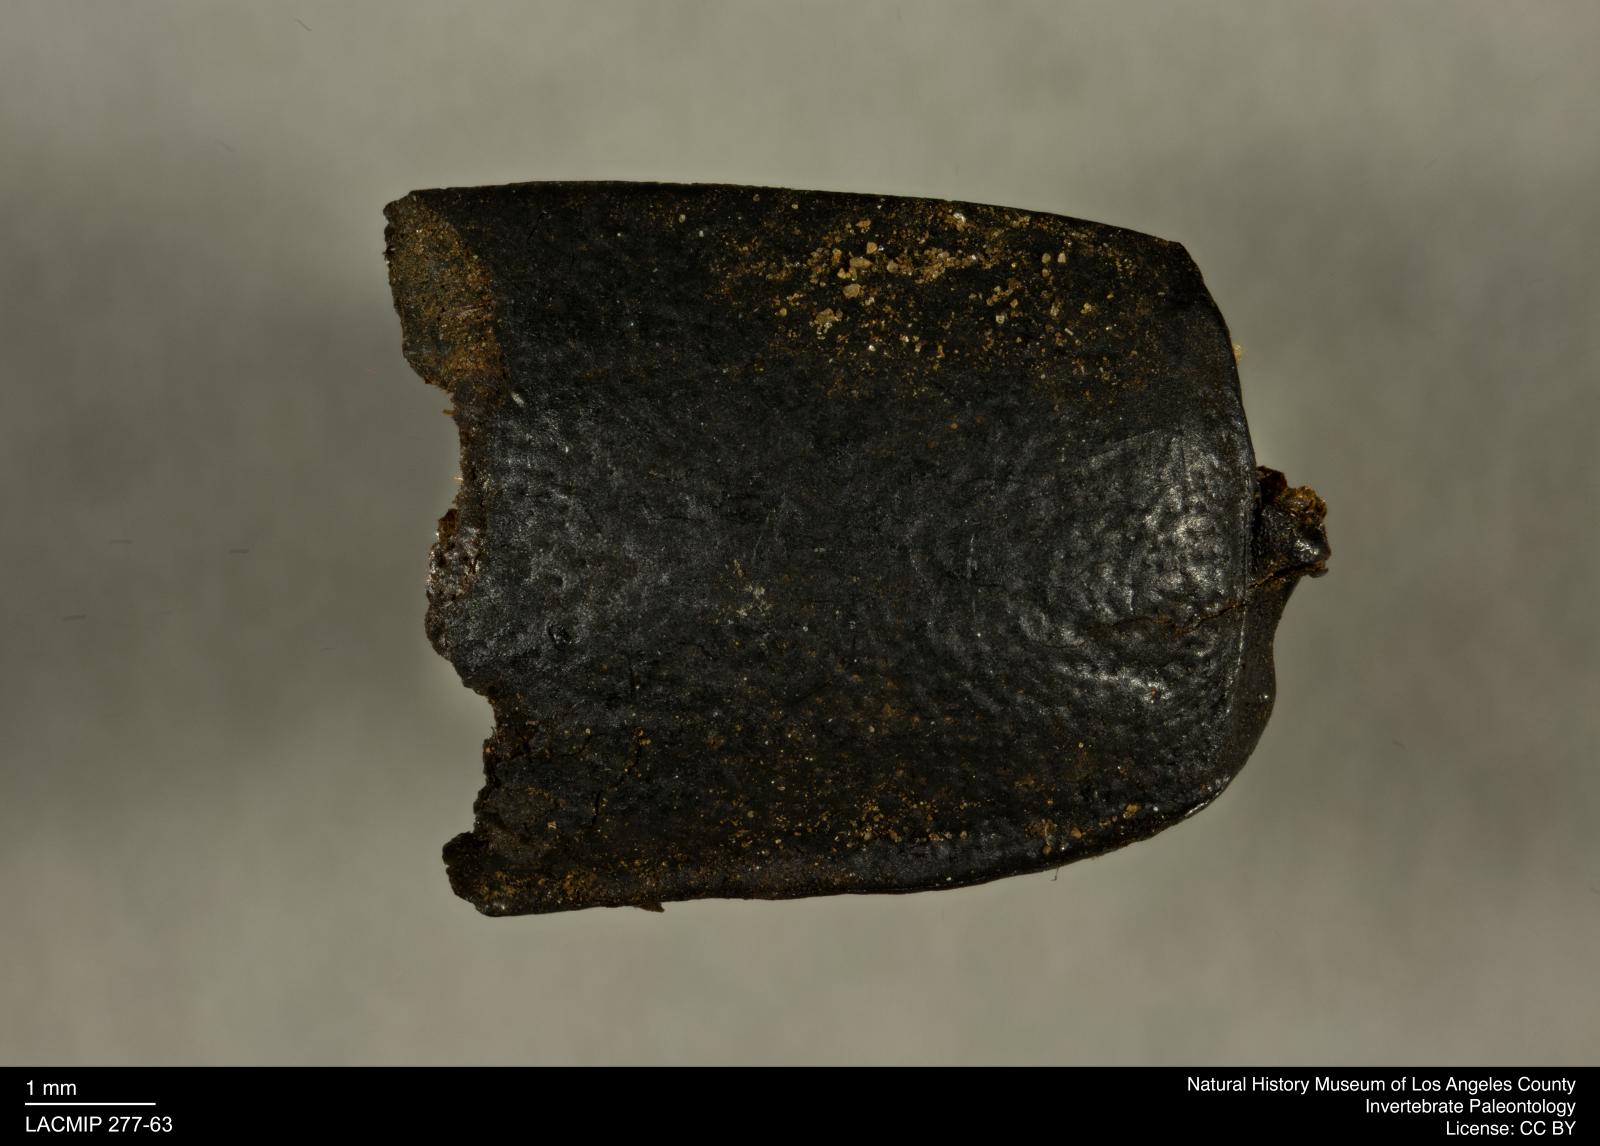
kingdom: Animalia
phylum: Arthropoda
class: Insecta
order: Coleoptera
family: Tenebrionidae
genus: Coniontis
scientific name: Coniontis abdominalis
